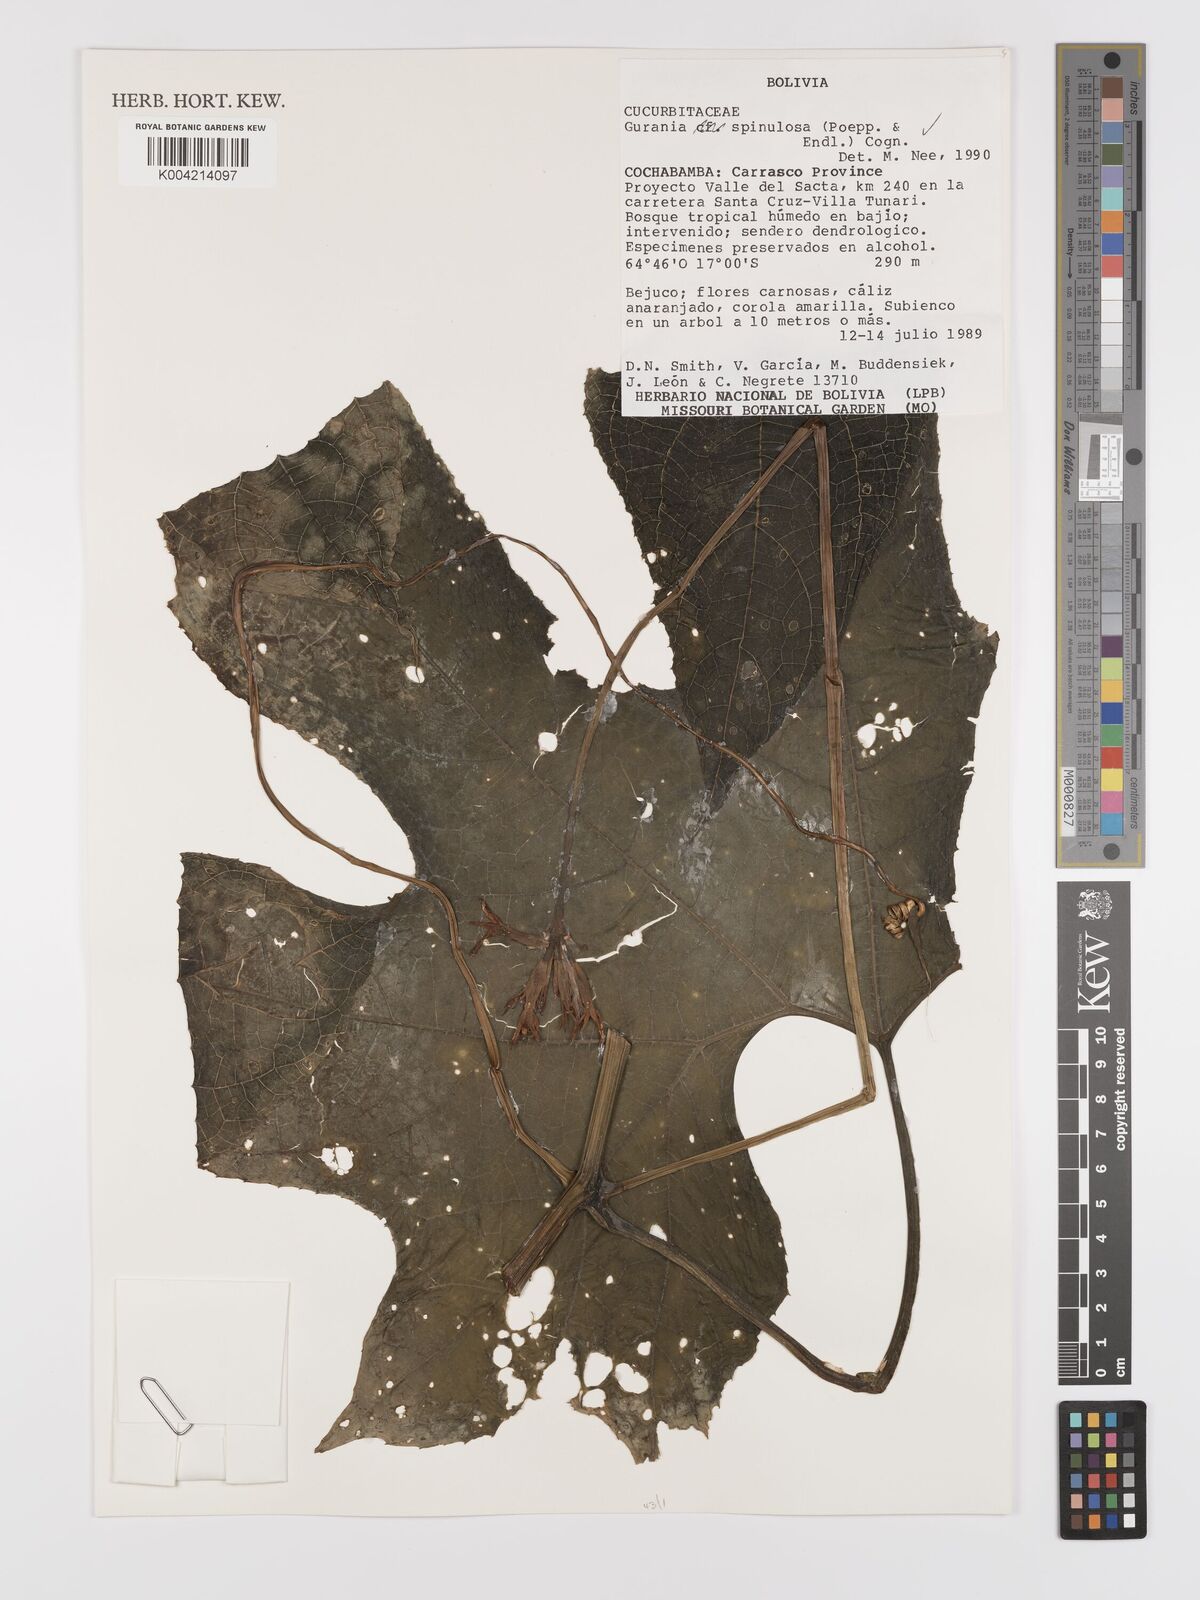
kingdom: Plantae
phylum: Tracheophyta
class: Magnoliopsida
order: Cucurbitales
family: Cucurbitaceae
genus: Gurania
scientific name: Gurania lobata
